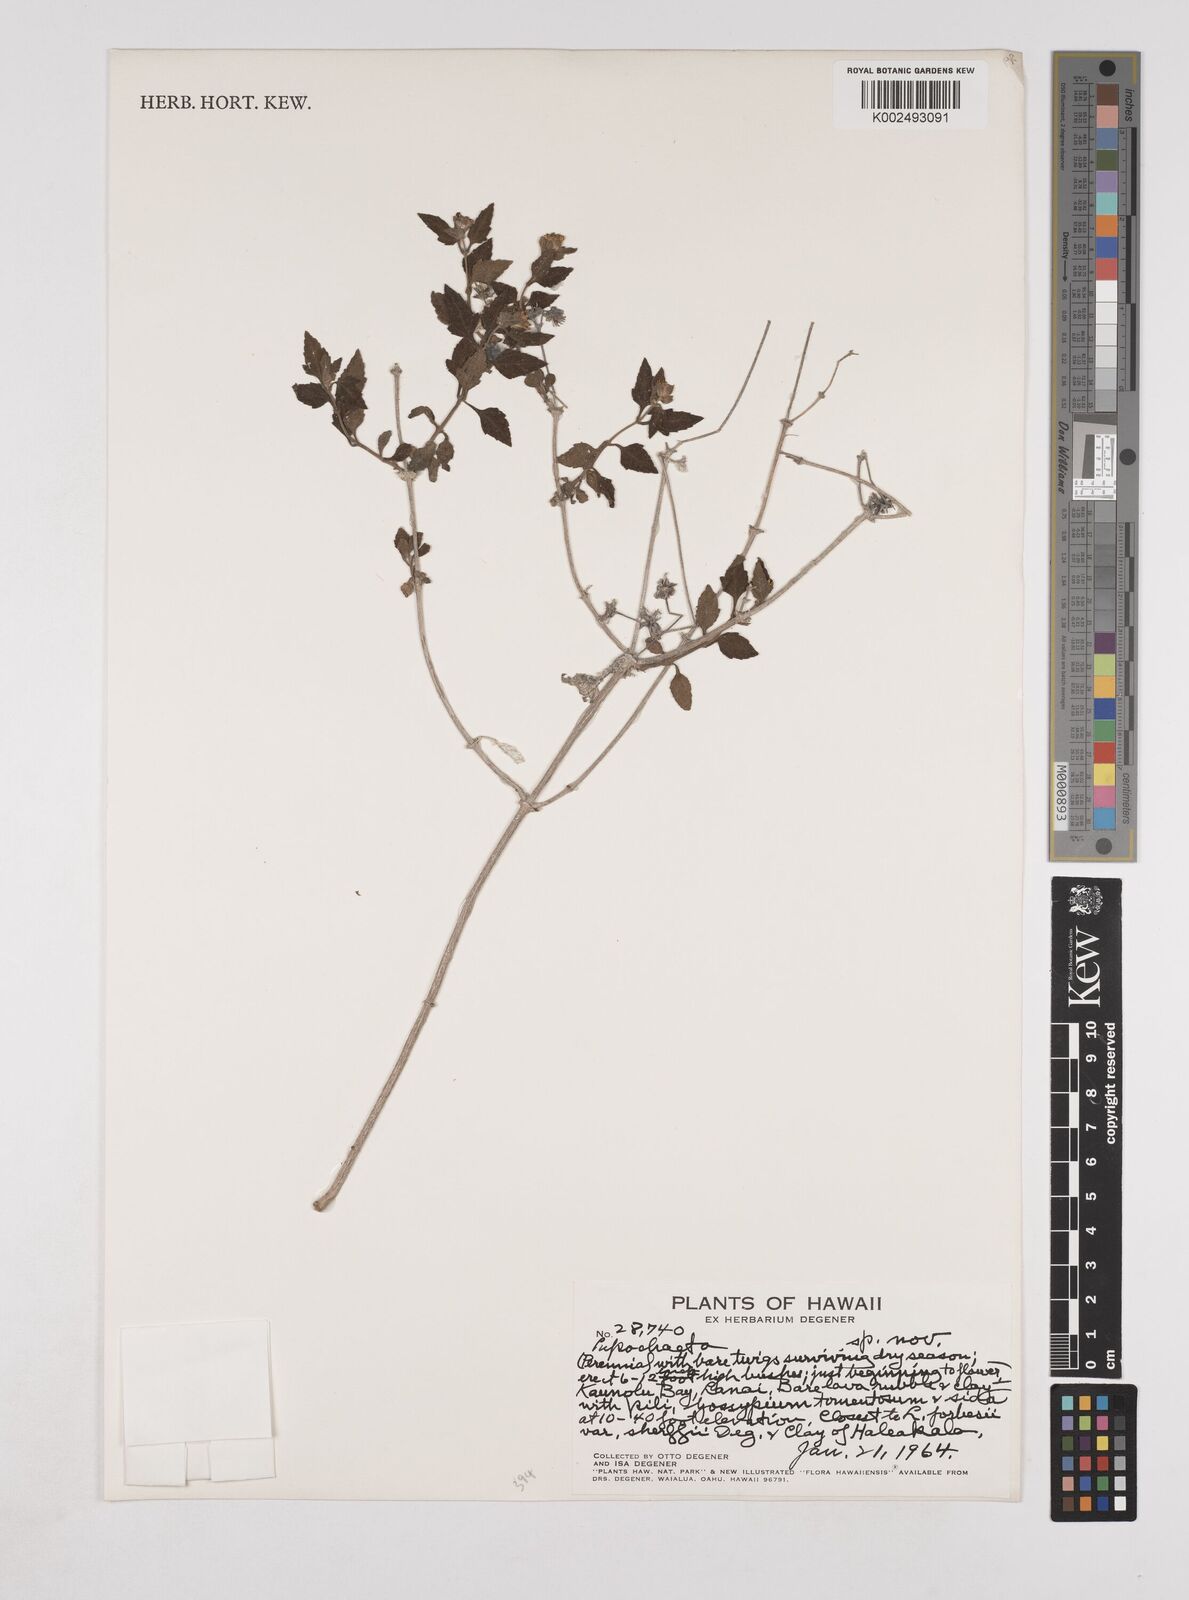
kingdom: Plantae
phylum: Tracheophyta
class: Magnoliopsida
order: Asterales
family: Asteraceae
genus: Lipochaeta
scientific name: Lipochaeta
